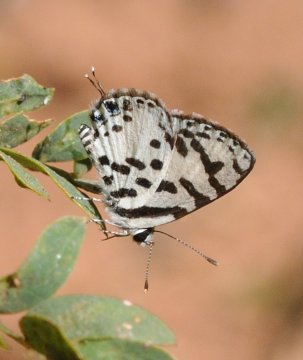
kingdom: Animalia
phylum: Arthropoda
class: Insecta
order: Lepidoptera
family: Lycaenidae
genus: Castalius
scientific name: Castalius calice
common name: White Pie
